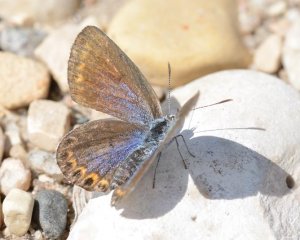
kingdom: Animalia
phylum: Arthropoda
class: Insecta
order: Lepidoptera
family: Lycaenidae
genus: Lycaeides
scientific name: Lycaeides idas
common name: Northern Blue
